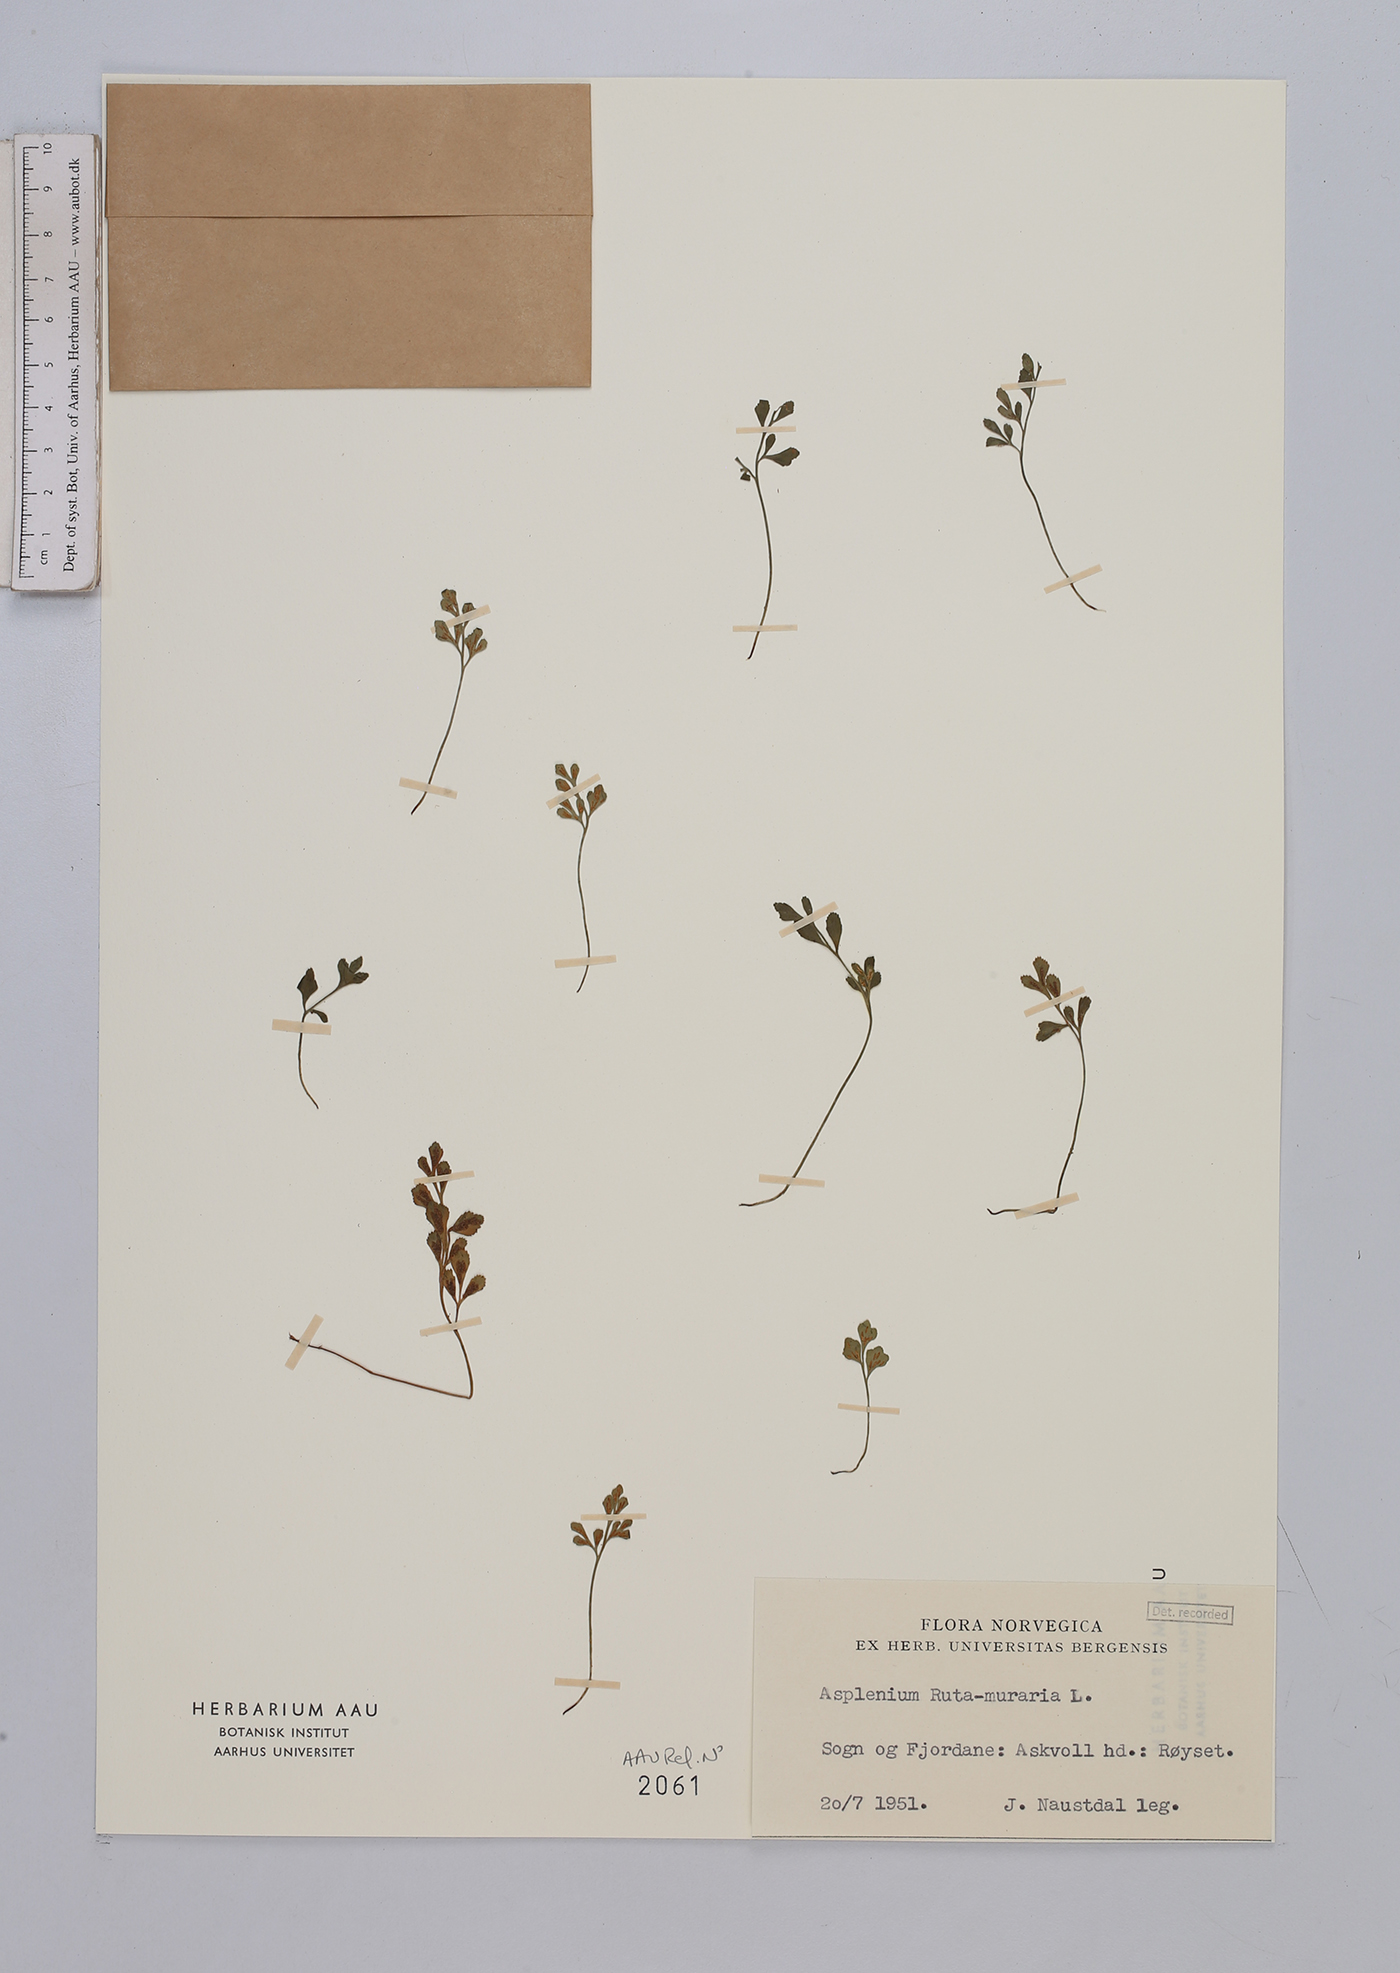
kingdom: Plantae
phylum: Tracheophyta
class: Polypodiopsida
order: Polypodiales
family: Aspleniaceae
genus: Asplenium
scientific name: Asplenium ruta-muraria
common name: Wall-rue
